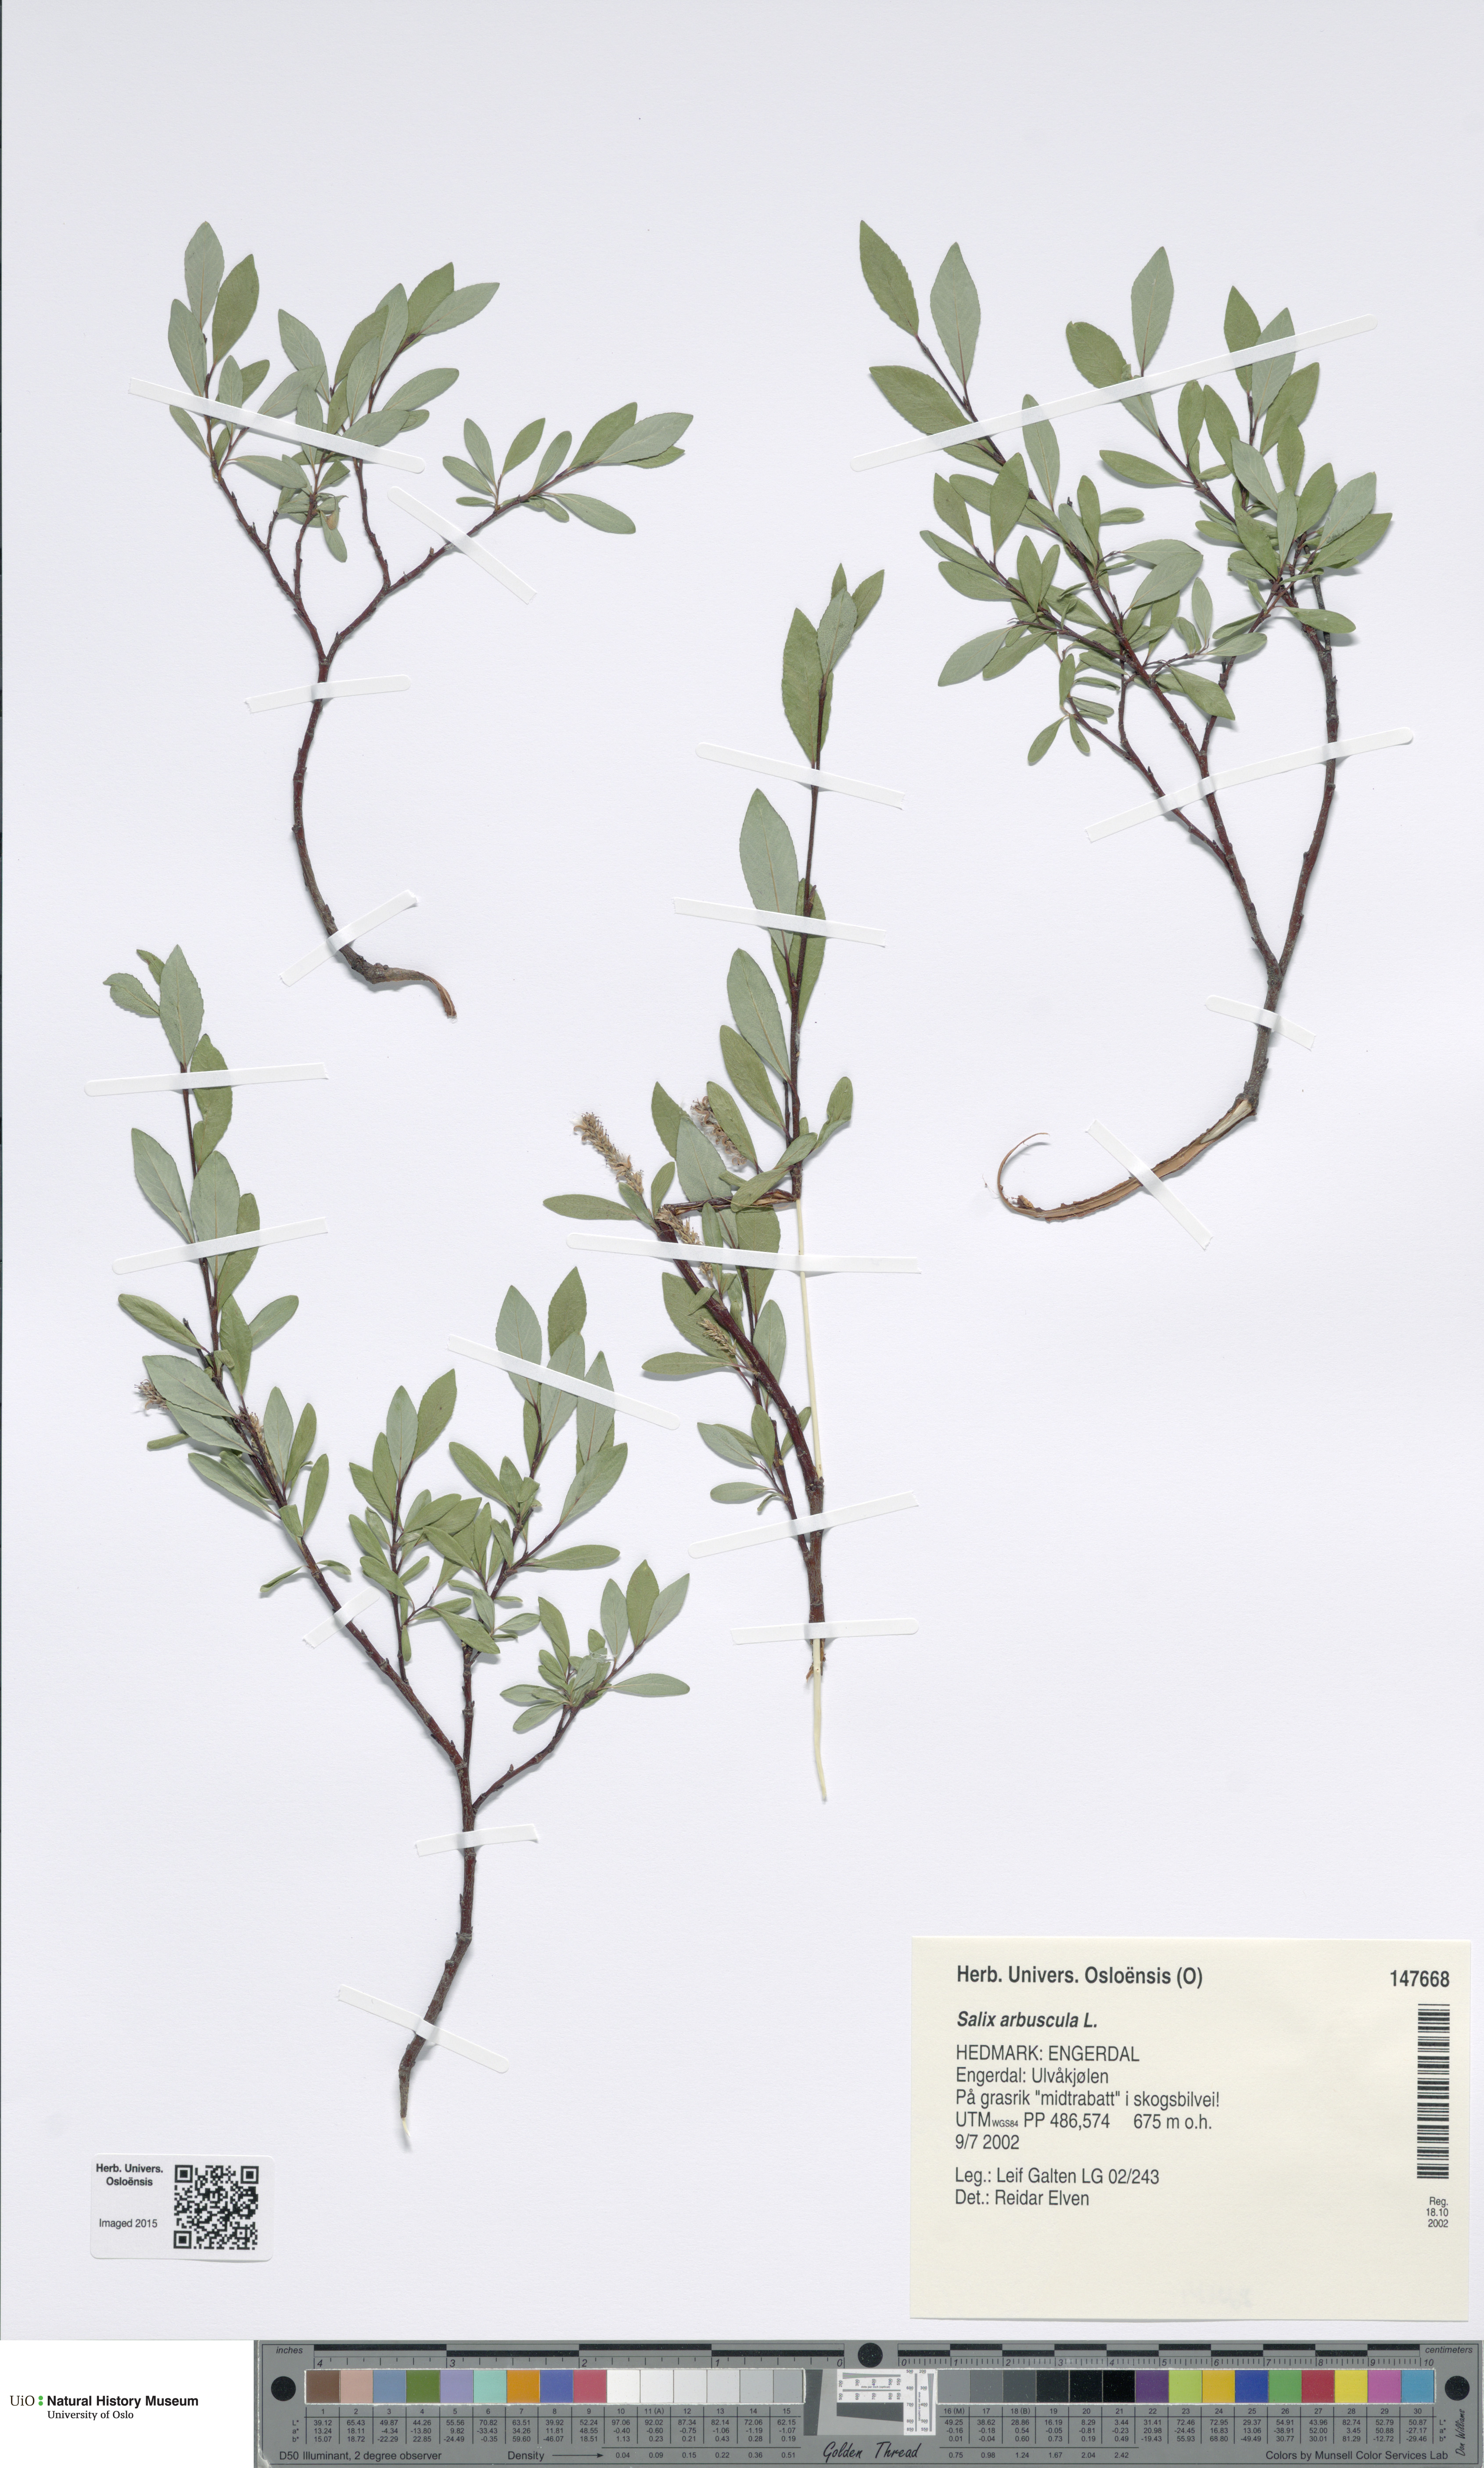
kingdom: Plantae
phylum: Tracheophyta
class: Magnoliopsida
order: Malpighiales
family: Salicaceae
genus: Salix
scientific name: Salix arbuscula
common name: Mountain willow
